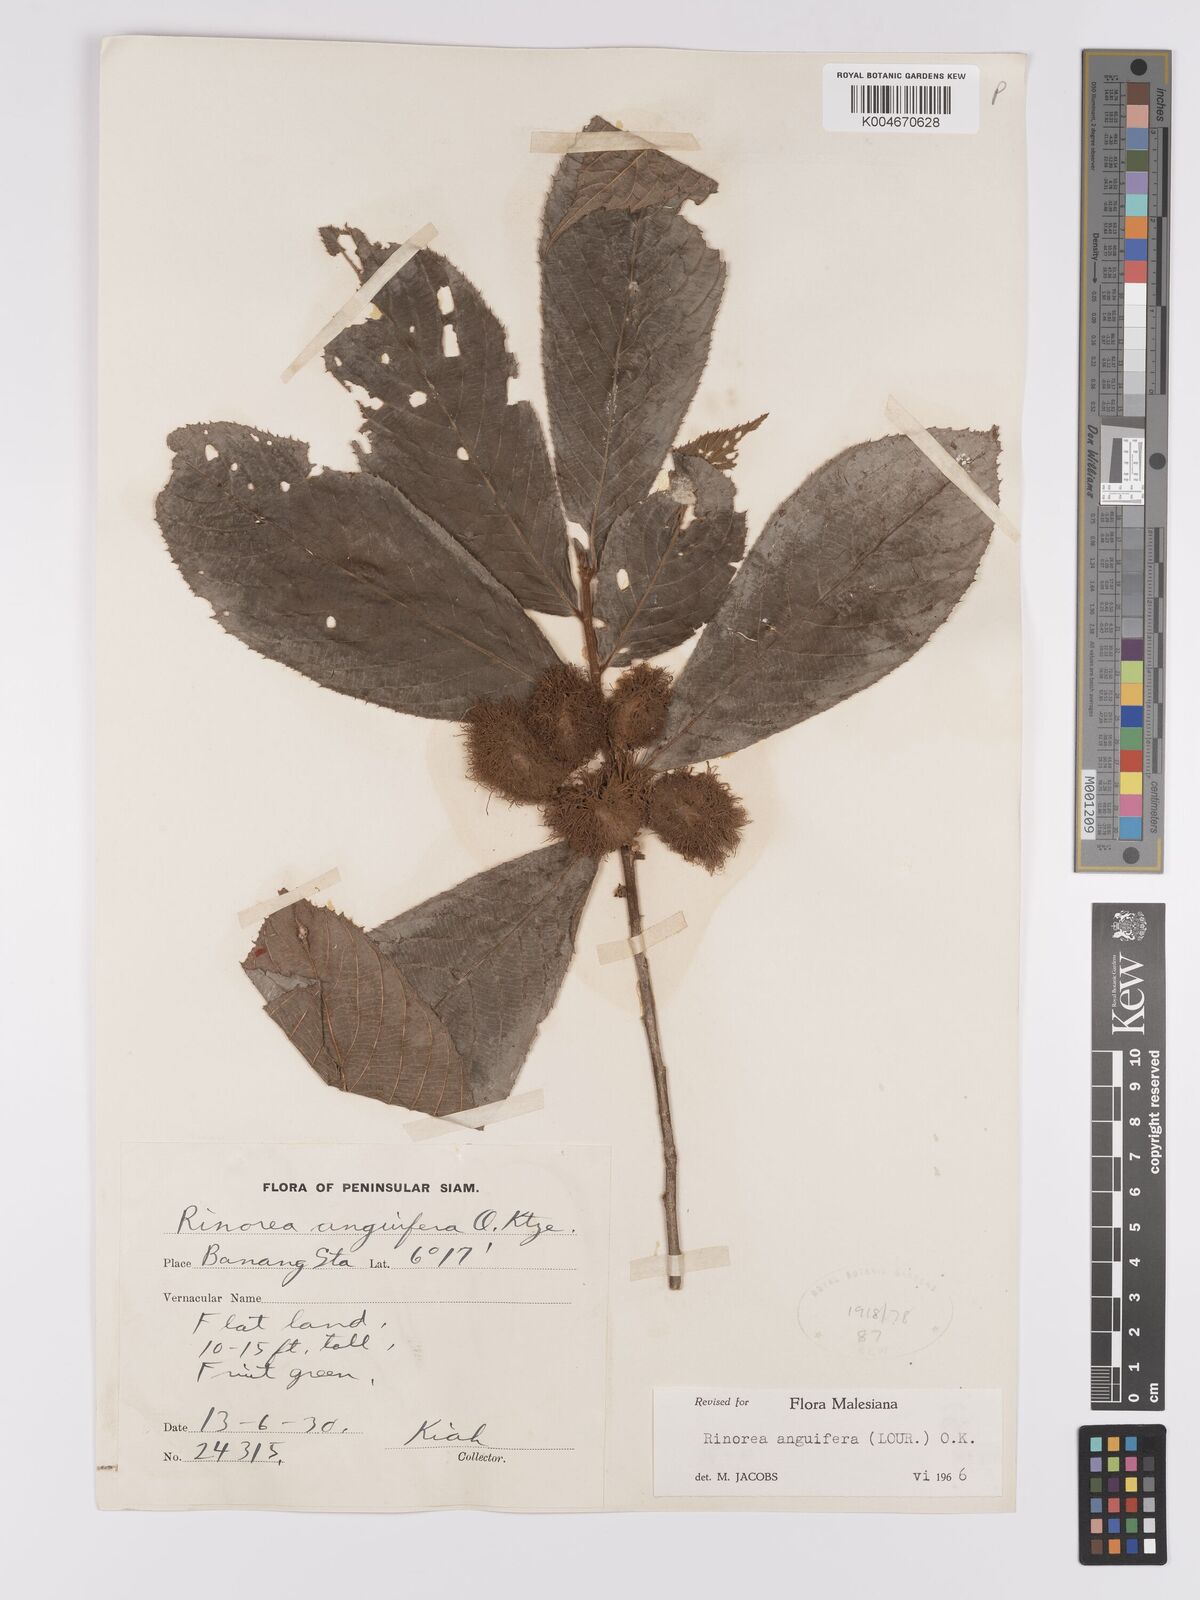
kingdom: Plantae
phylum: Tracheophyta
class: Magnoliopsida
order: Malpighiales
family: Violaceae
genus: Rinorea
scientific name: Rinorea anguifera
